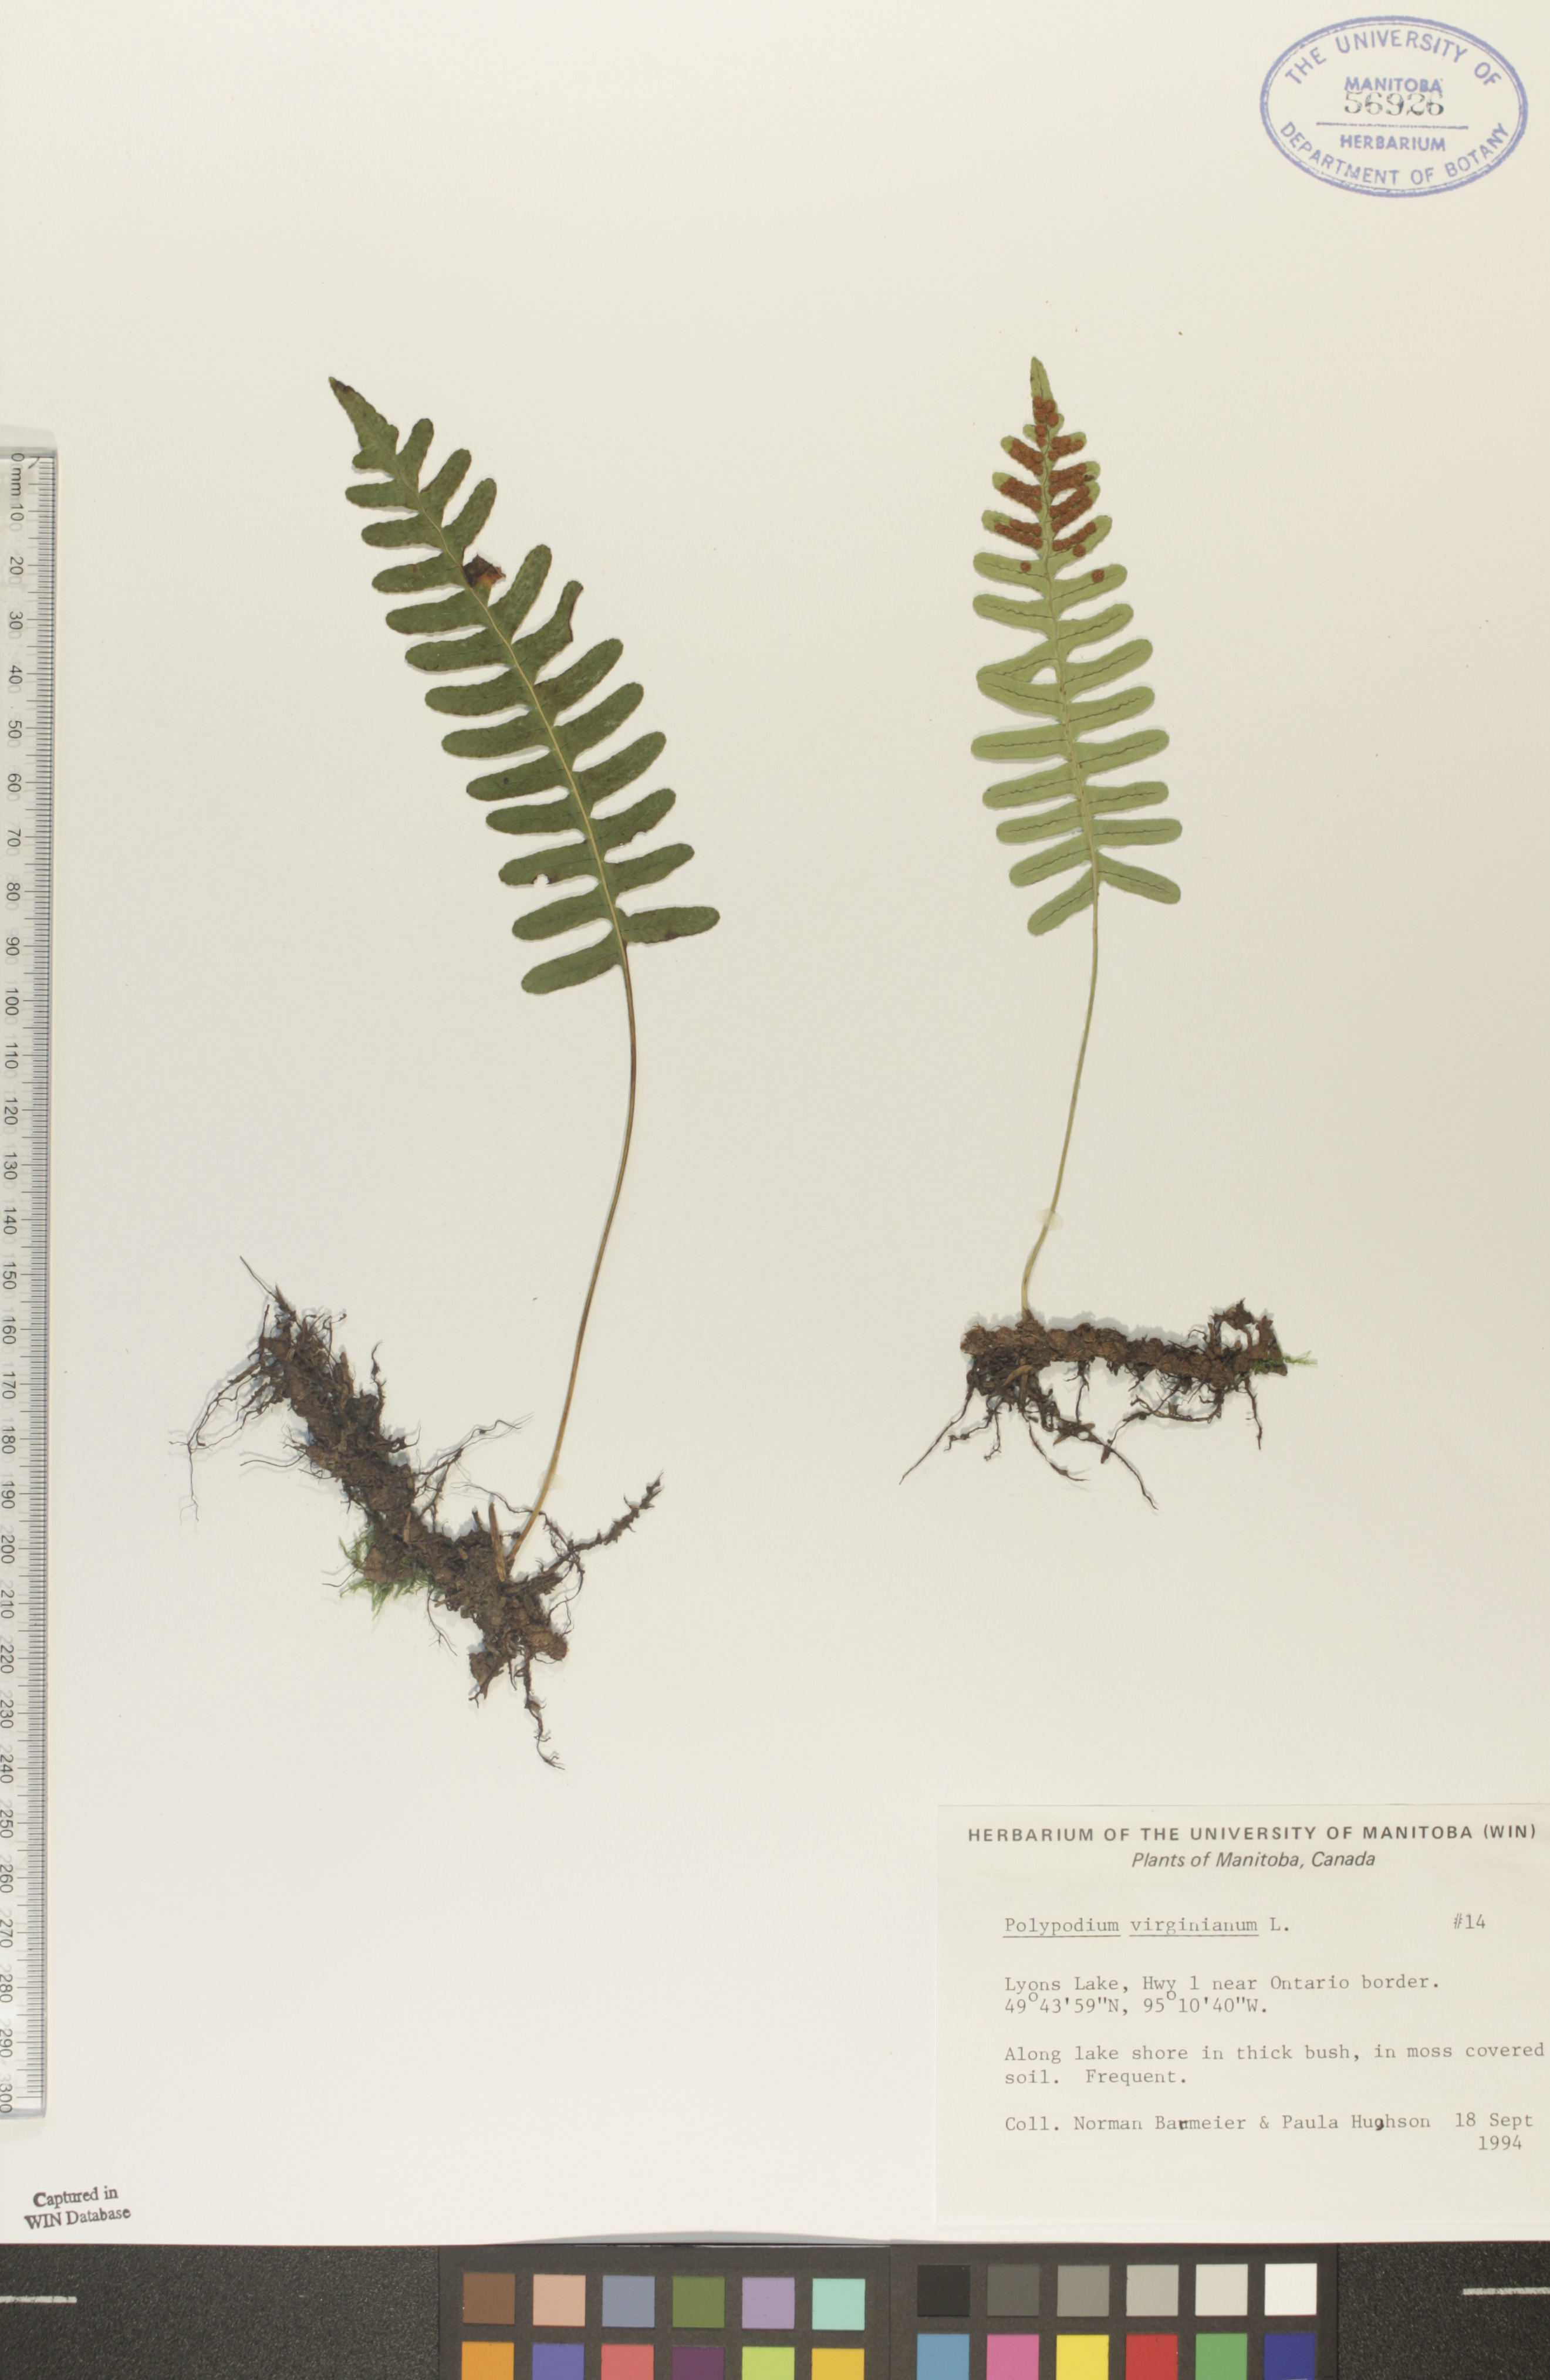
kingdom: Plantae
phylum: Tracheophyta
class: Polypodiopsida
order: Polypodiales
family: Polypodiaceae
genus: Polypodium
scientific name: Polypodium virginianum
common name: American wall fern
